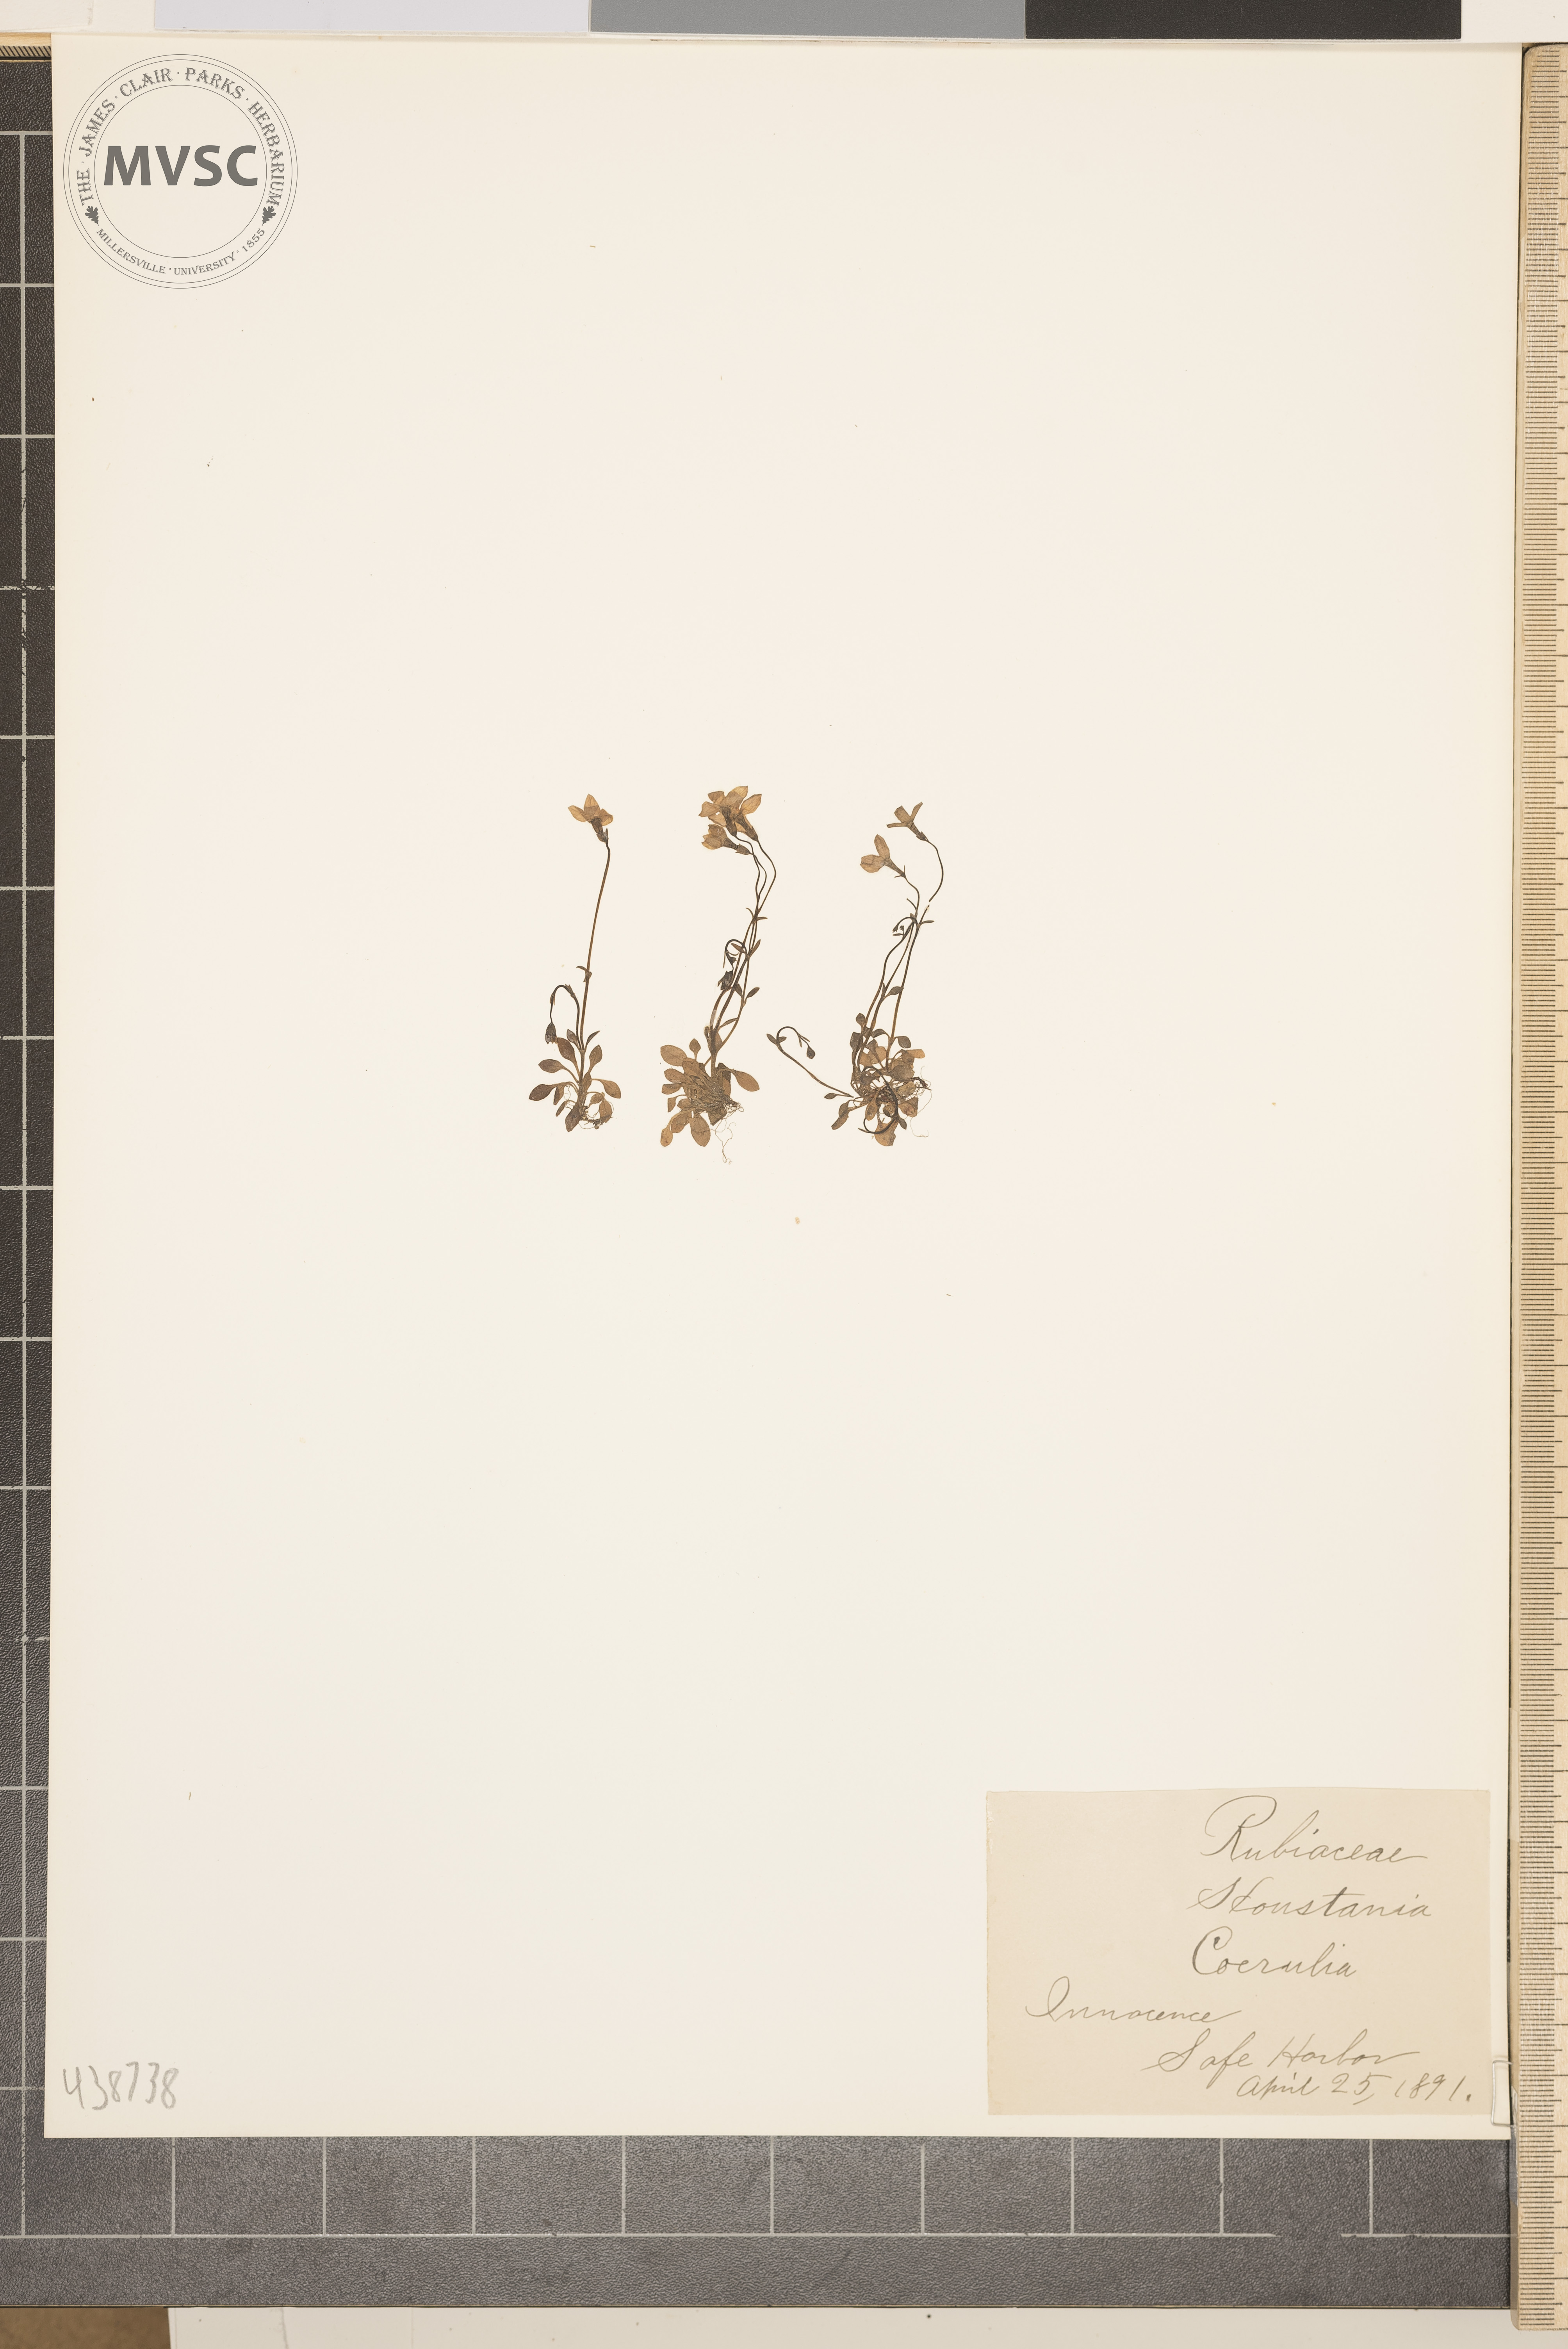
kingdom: Plantae
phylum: Tracheophyta
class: Magnoliopsida
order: Gentianales
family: Rubiaceae
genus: Houstonia
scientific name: Houstonia caerulea
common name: Innocence
